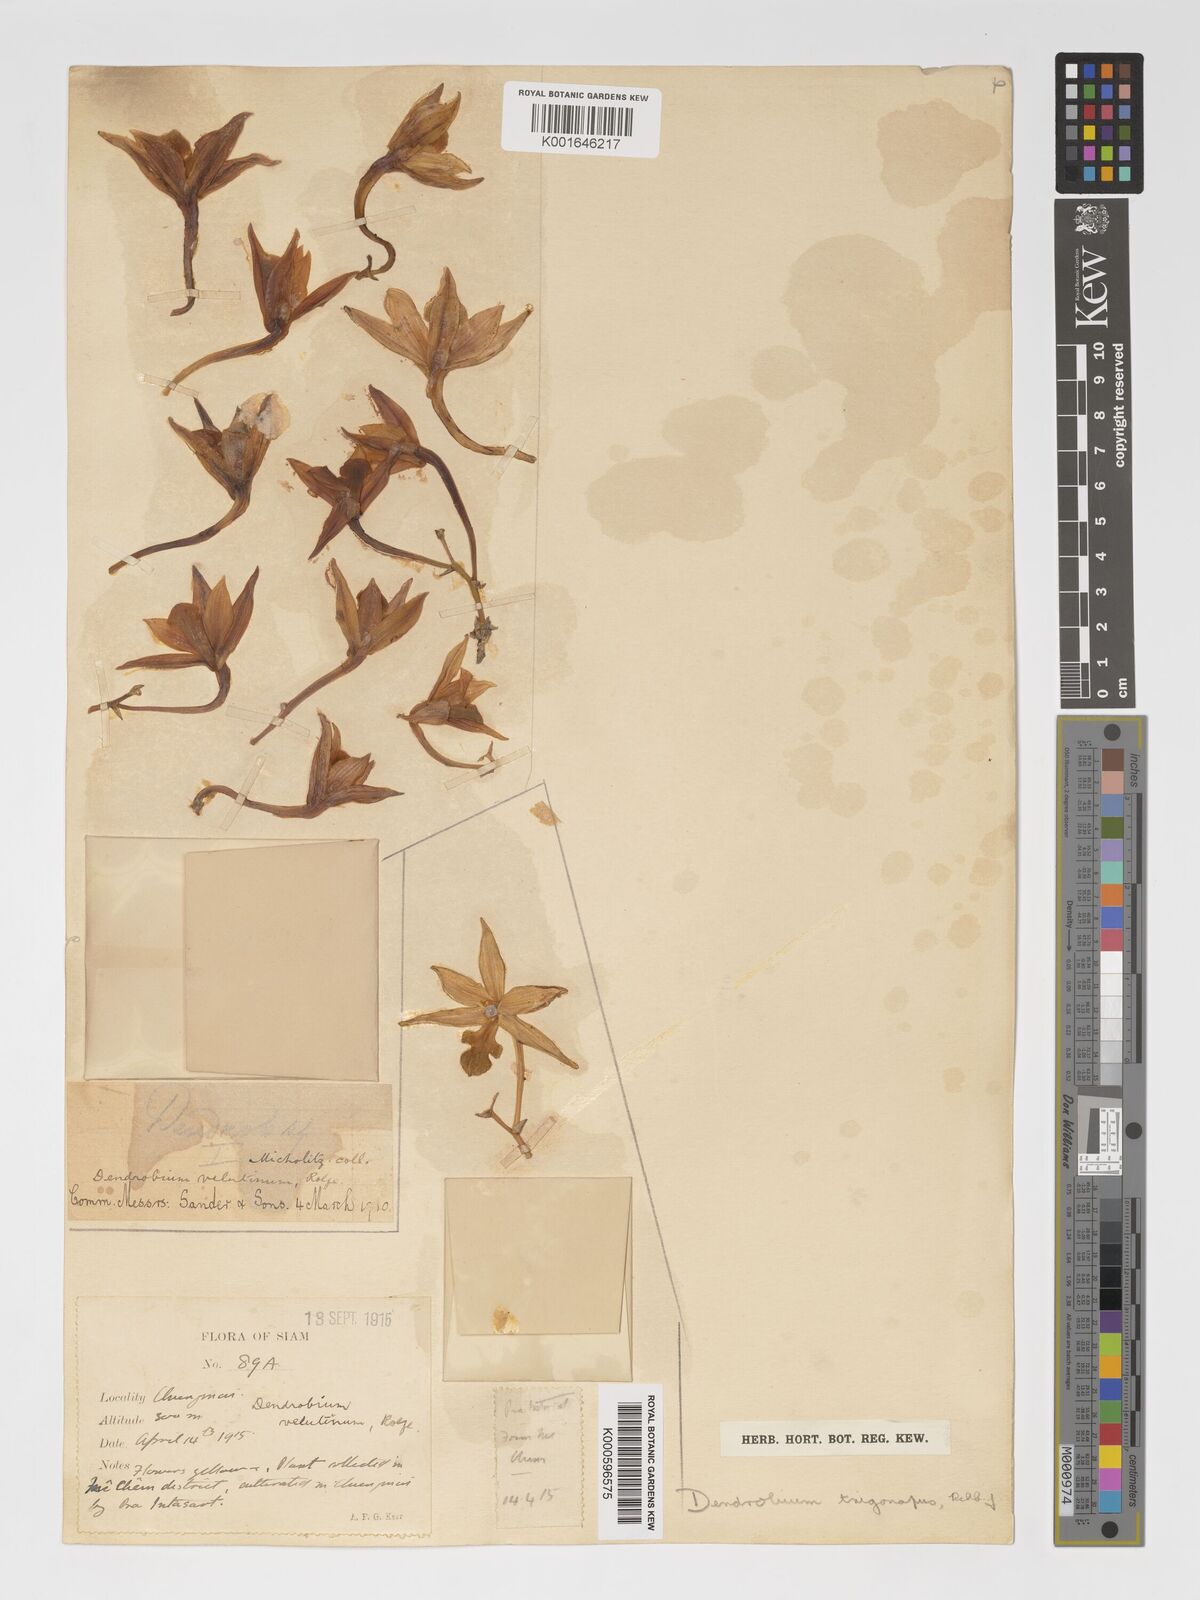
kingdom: Plantae
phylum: Tracheophyta
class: Liliopsida
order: Asparagales
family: Orchidaceae
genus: Dendrobium
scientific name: Dendrobium trigonopus
